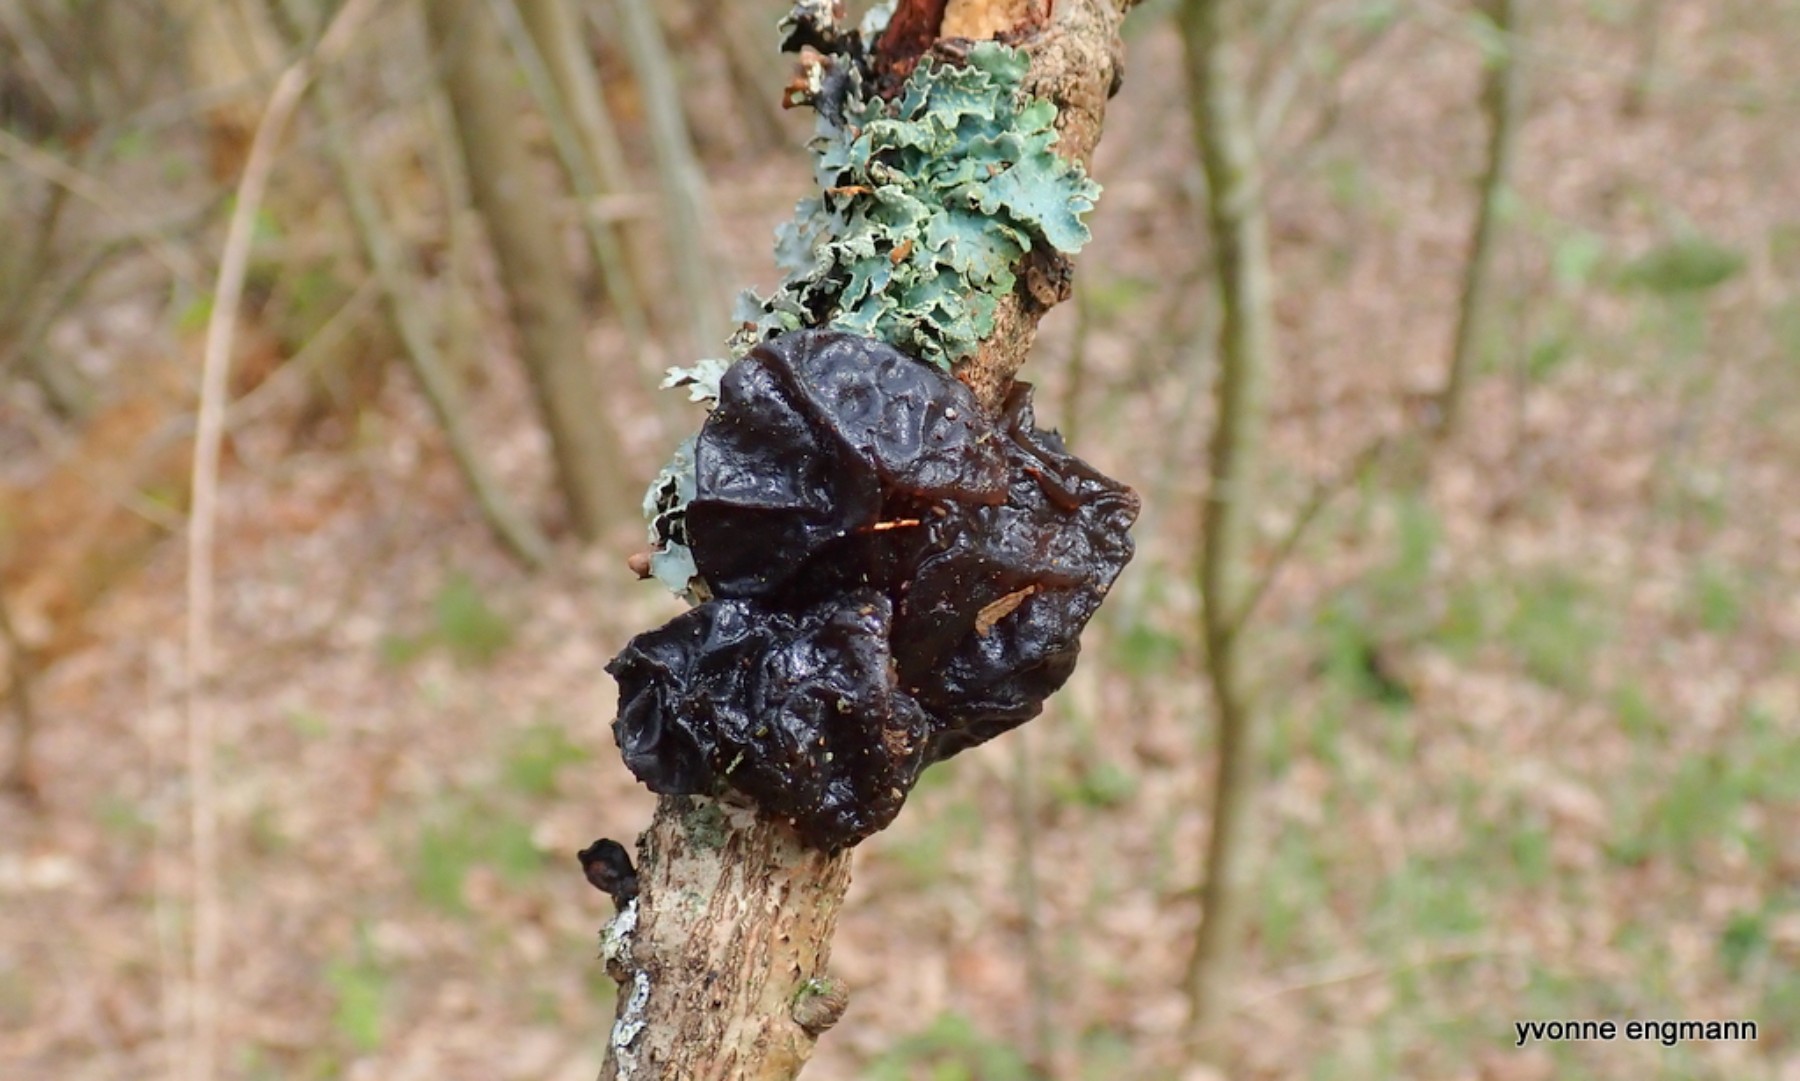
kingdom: Fungi
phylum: Basidiomycota
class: Agaricomycetes
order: Auriculariales
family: Auriculariaceae
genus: Exidia
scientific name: Exidia glandulosa
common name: ege-bævretop
